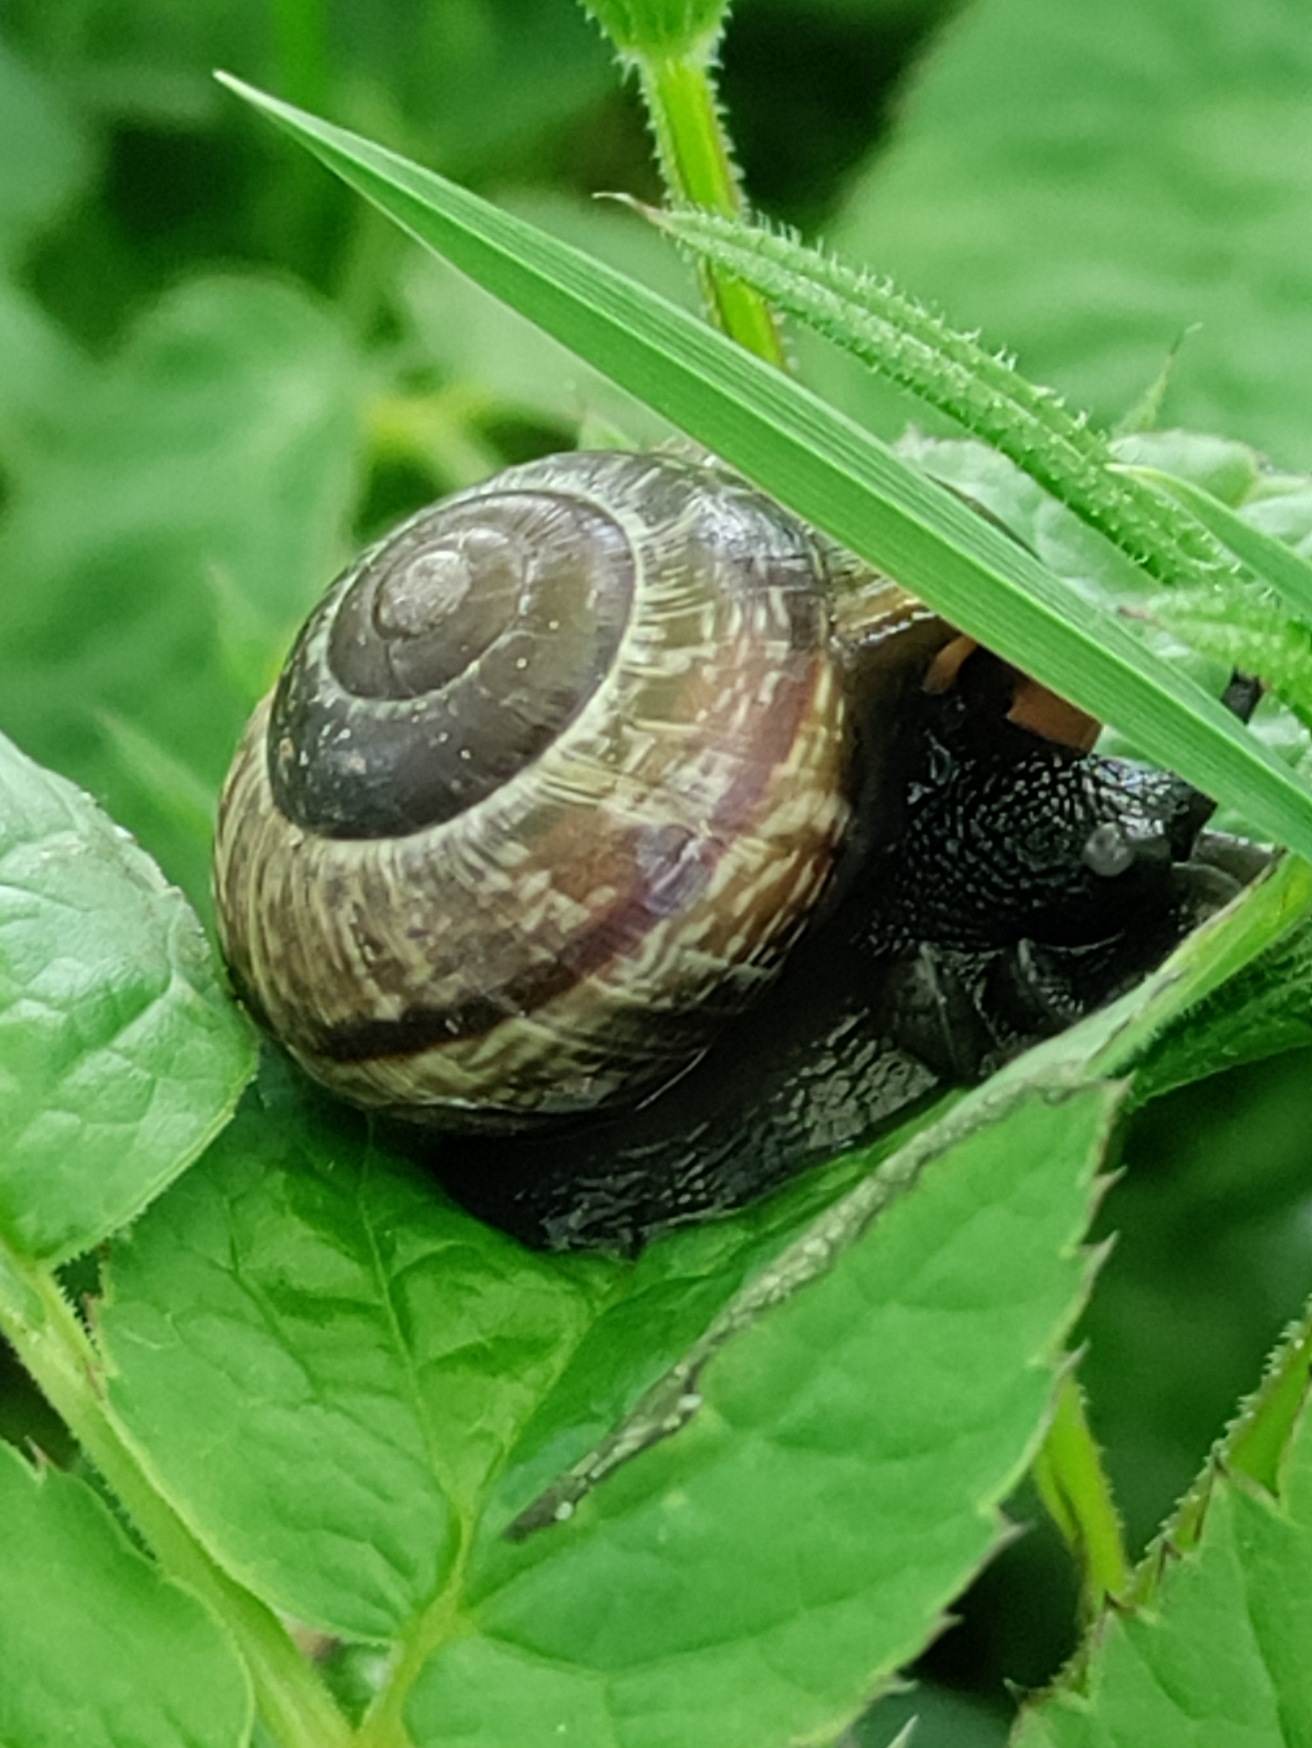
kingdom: Animalia
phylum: Mollusca
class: Gastropoda
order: Stylommatophora
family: Helicidae
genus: Arianta
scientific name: Arianta arbustorum
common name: Kratsnegl
